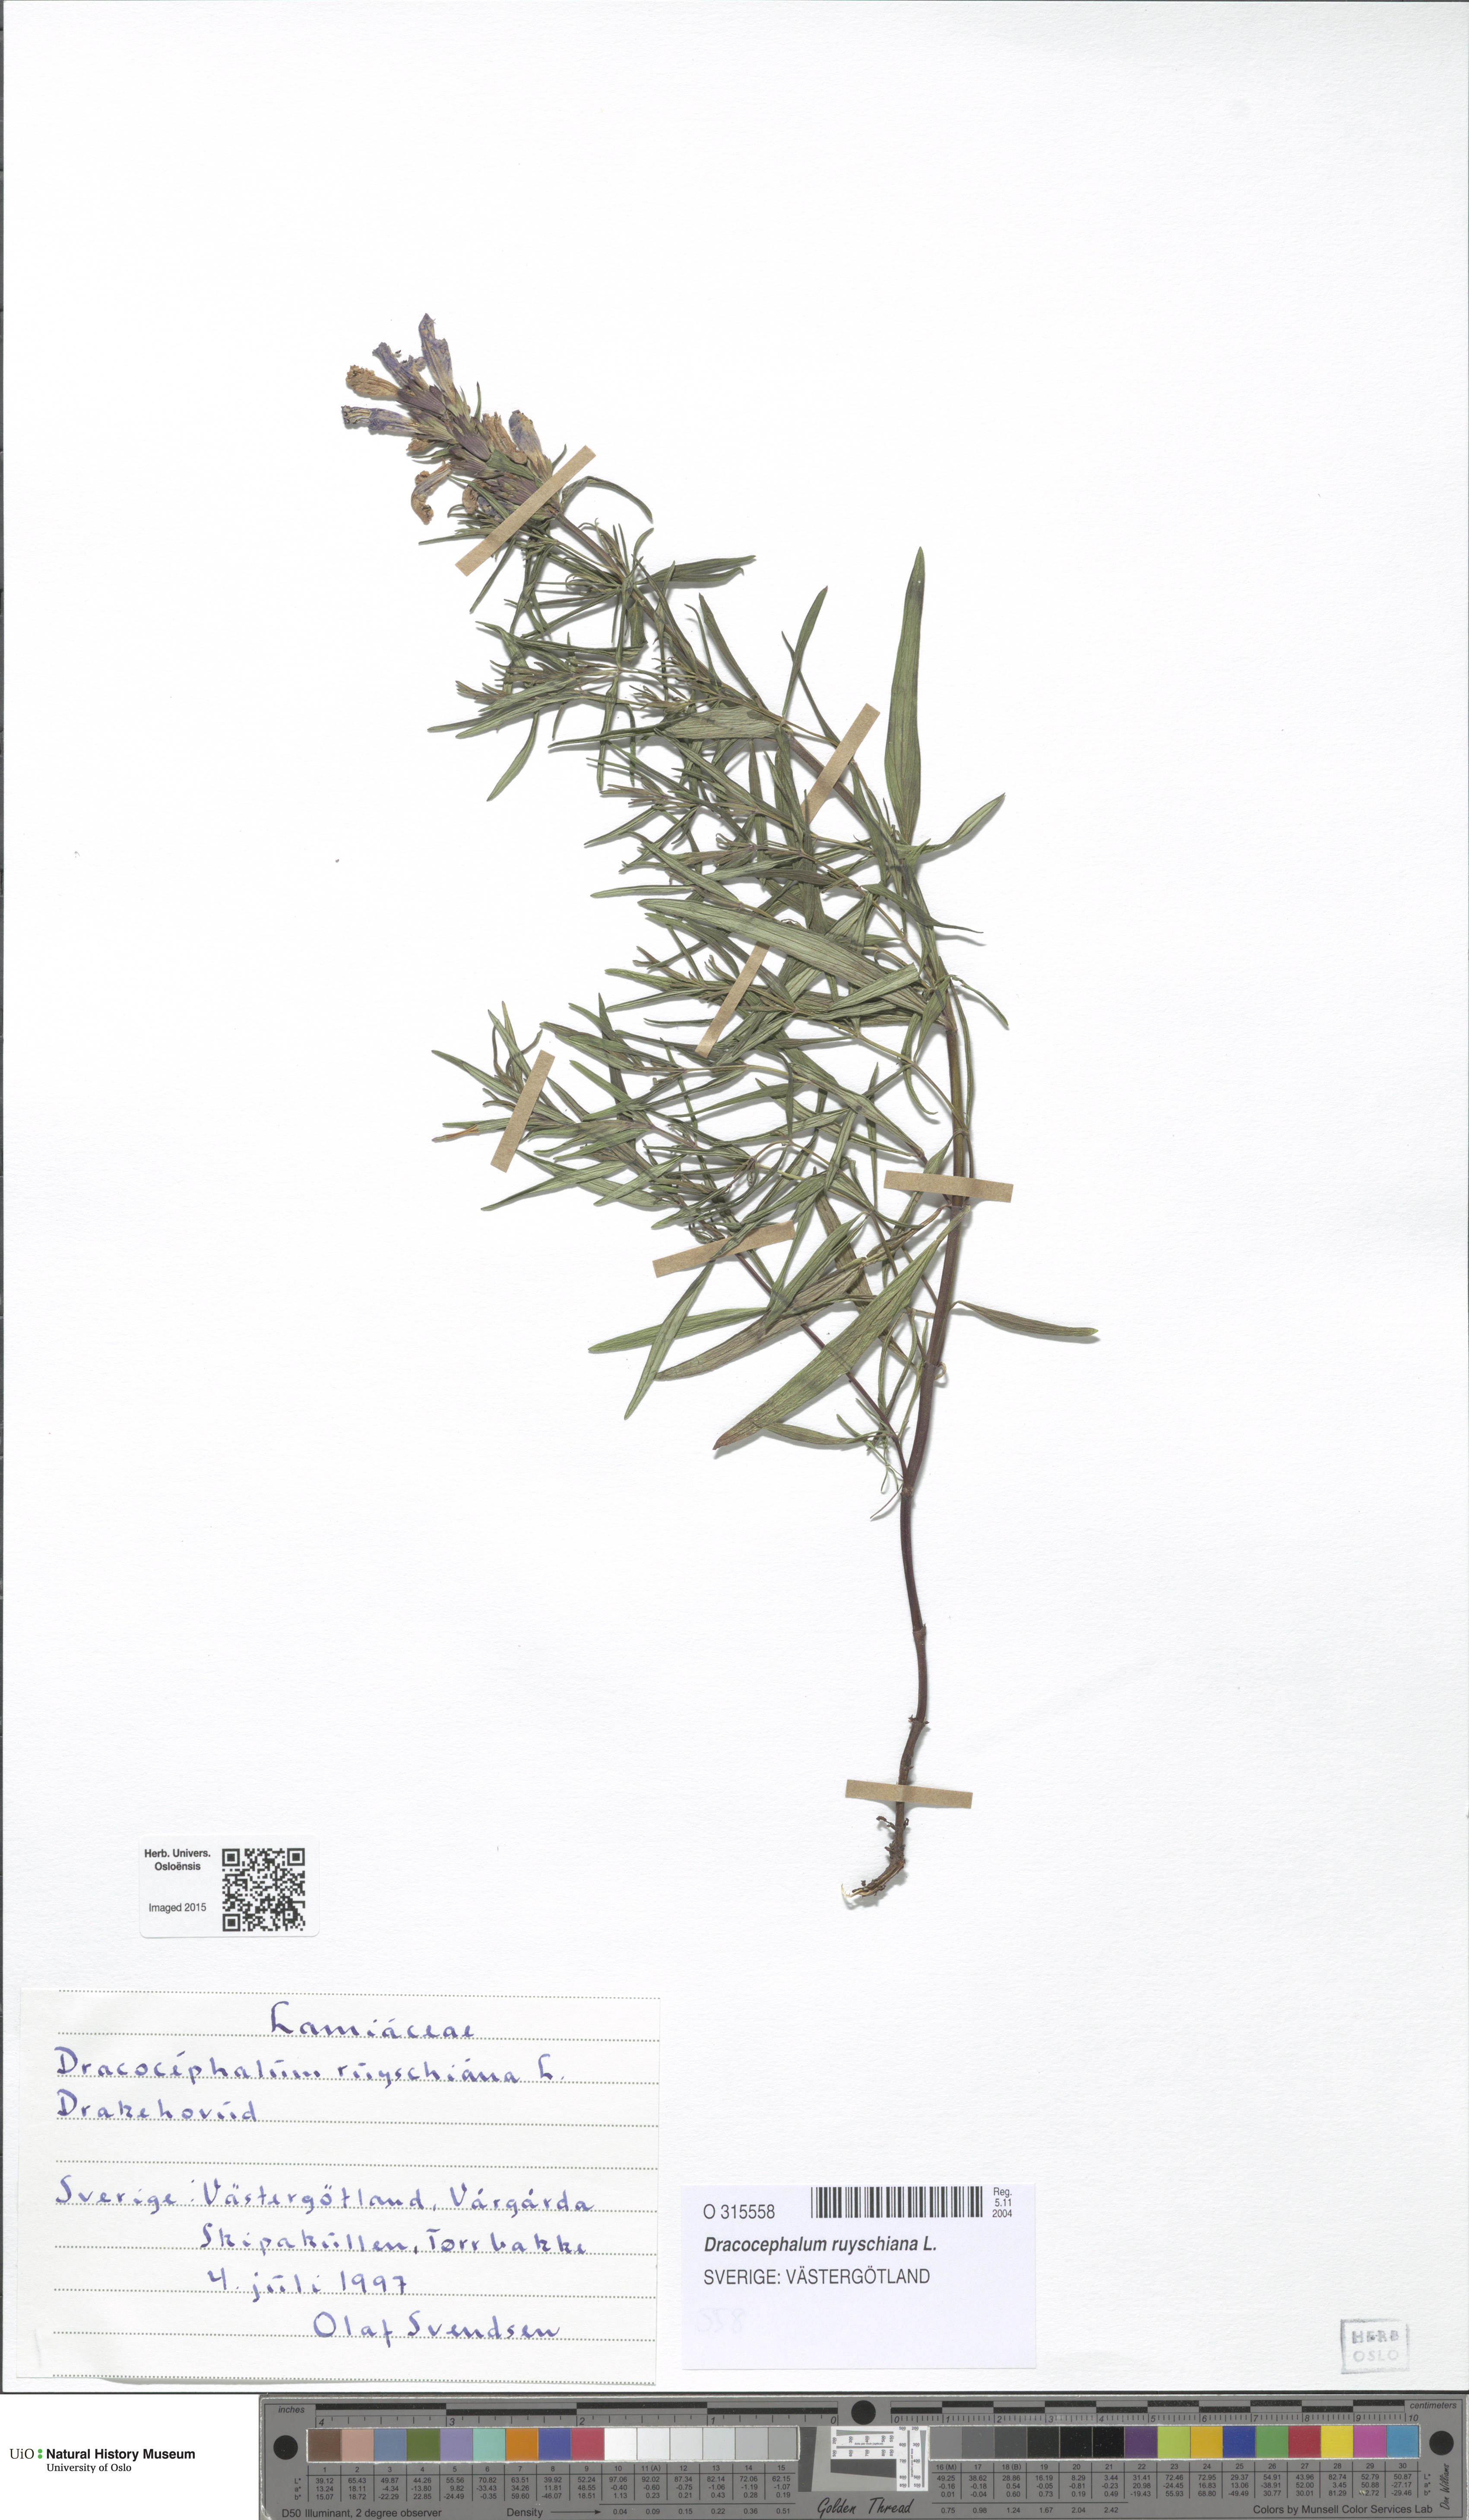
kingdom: Plantae
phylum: Tracheophyta
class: Magnoliopsida
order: Lamiales
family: Lamiaceae
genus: Dracocephalum
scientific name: Dracocephalum ruyschiana
